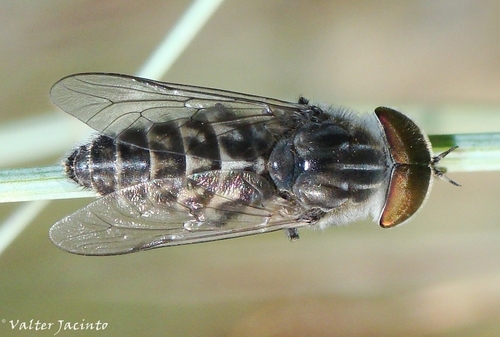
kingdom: Animalia
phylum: Arthropoda
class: Insecta
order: Diptera
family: Tabanidae
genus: Tabanus
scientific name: Tabanus nemoralis
